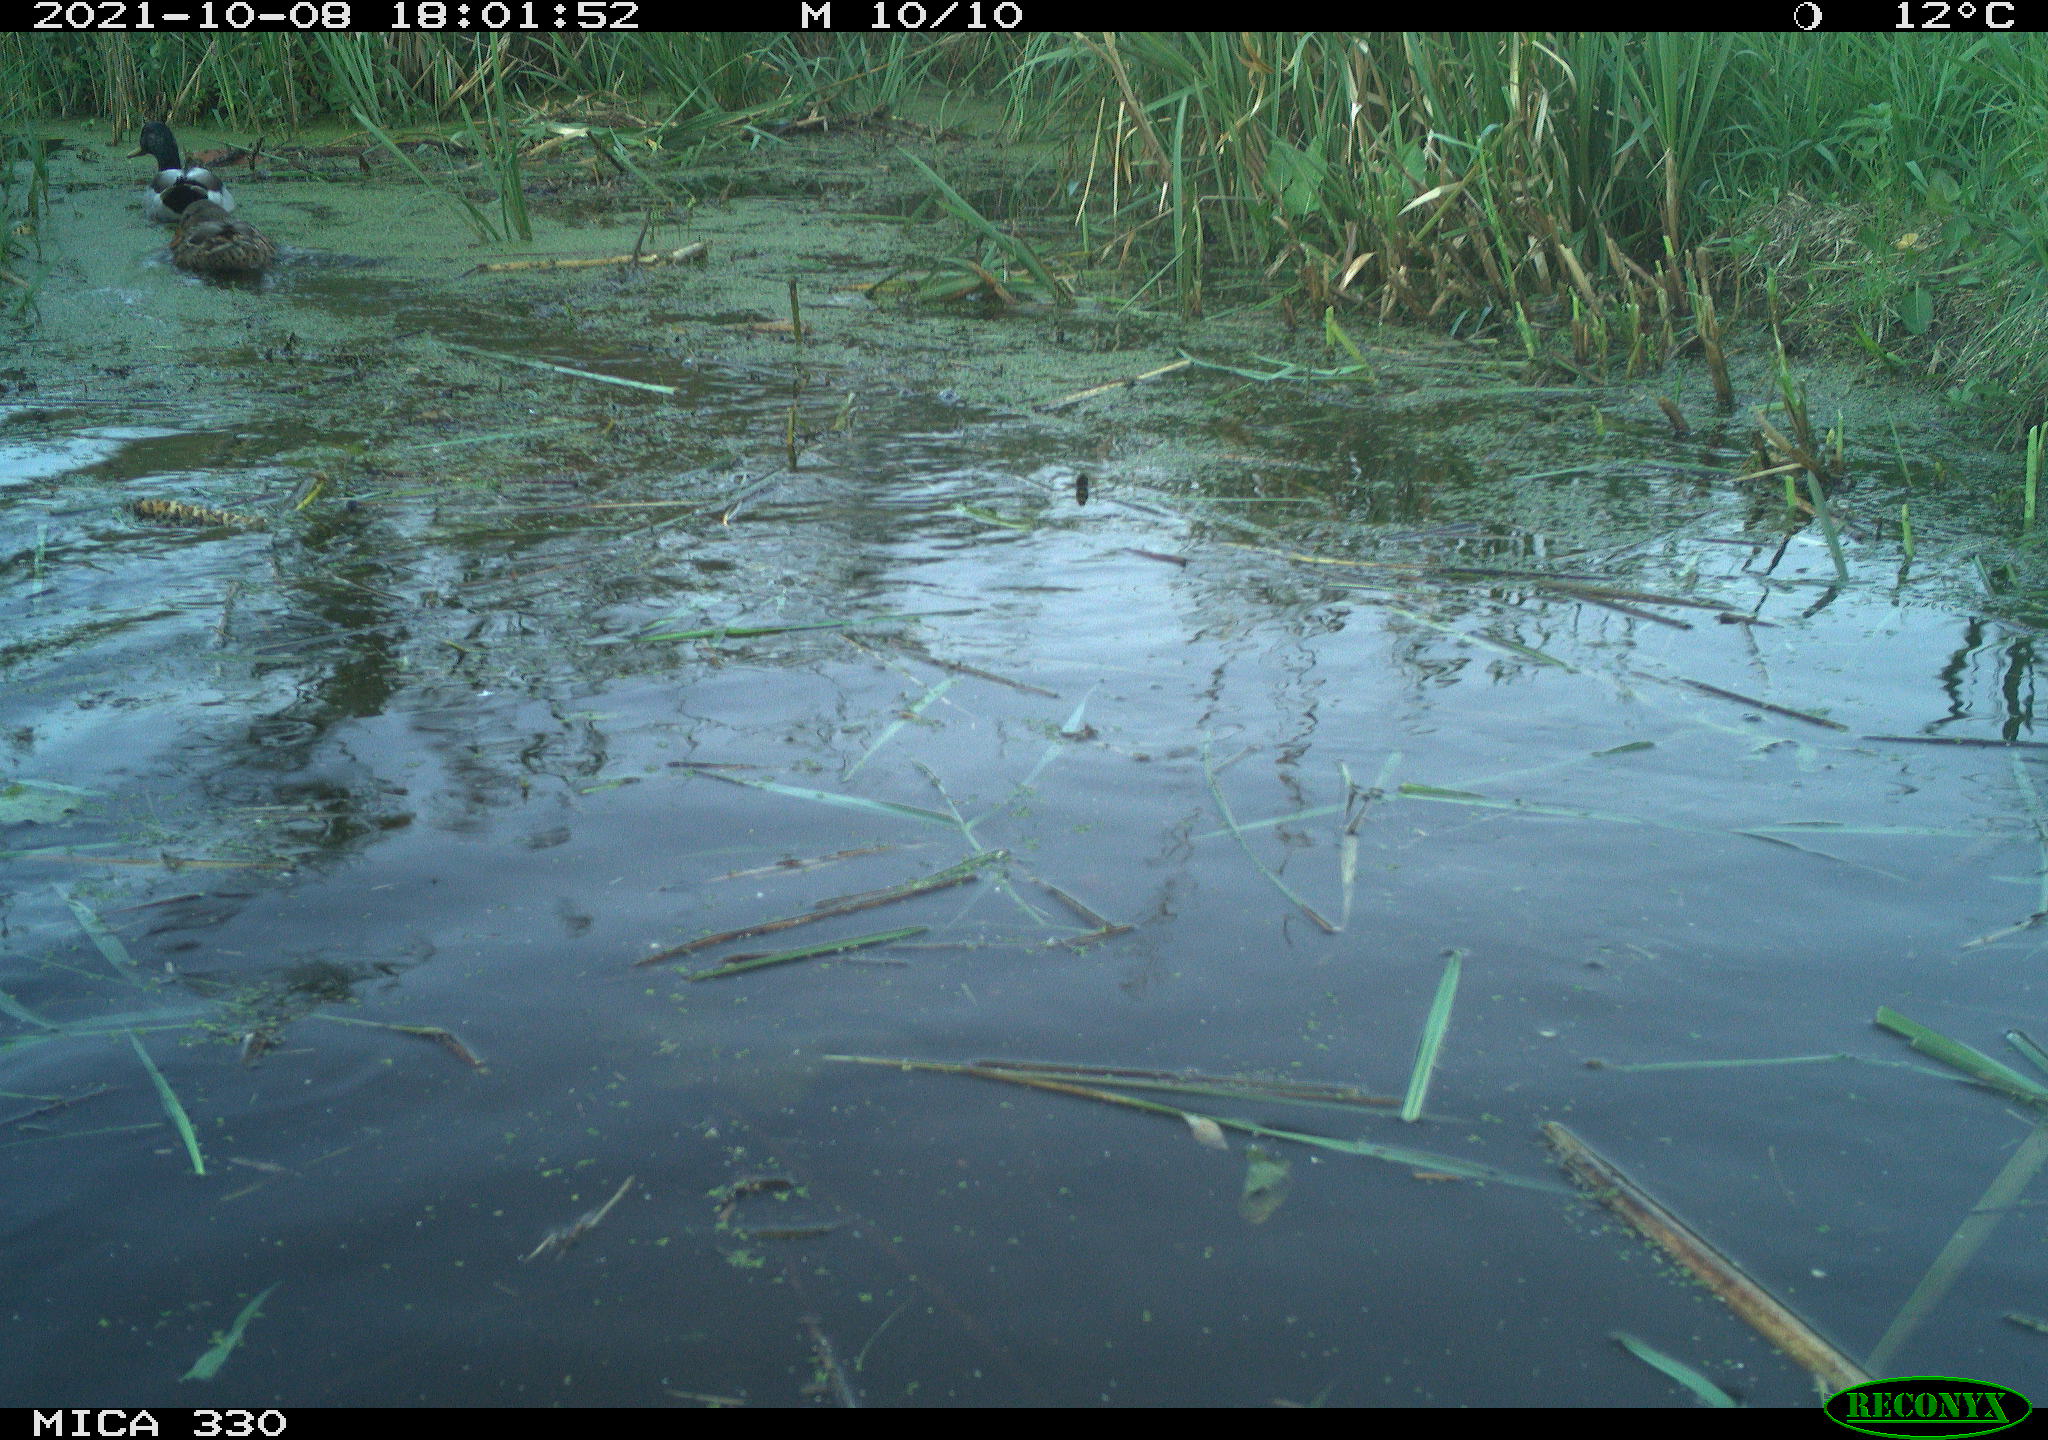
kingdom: Animalia
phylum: Chordata
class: Aves
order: Anseriformes
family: Anatidae
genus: Anas
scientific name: Anas platyrhynchos
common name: Mallard
